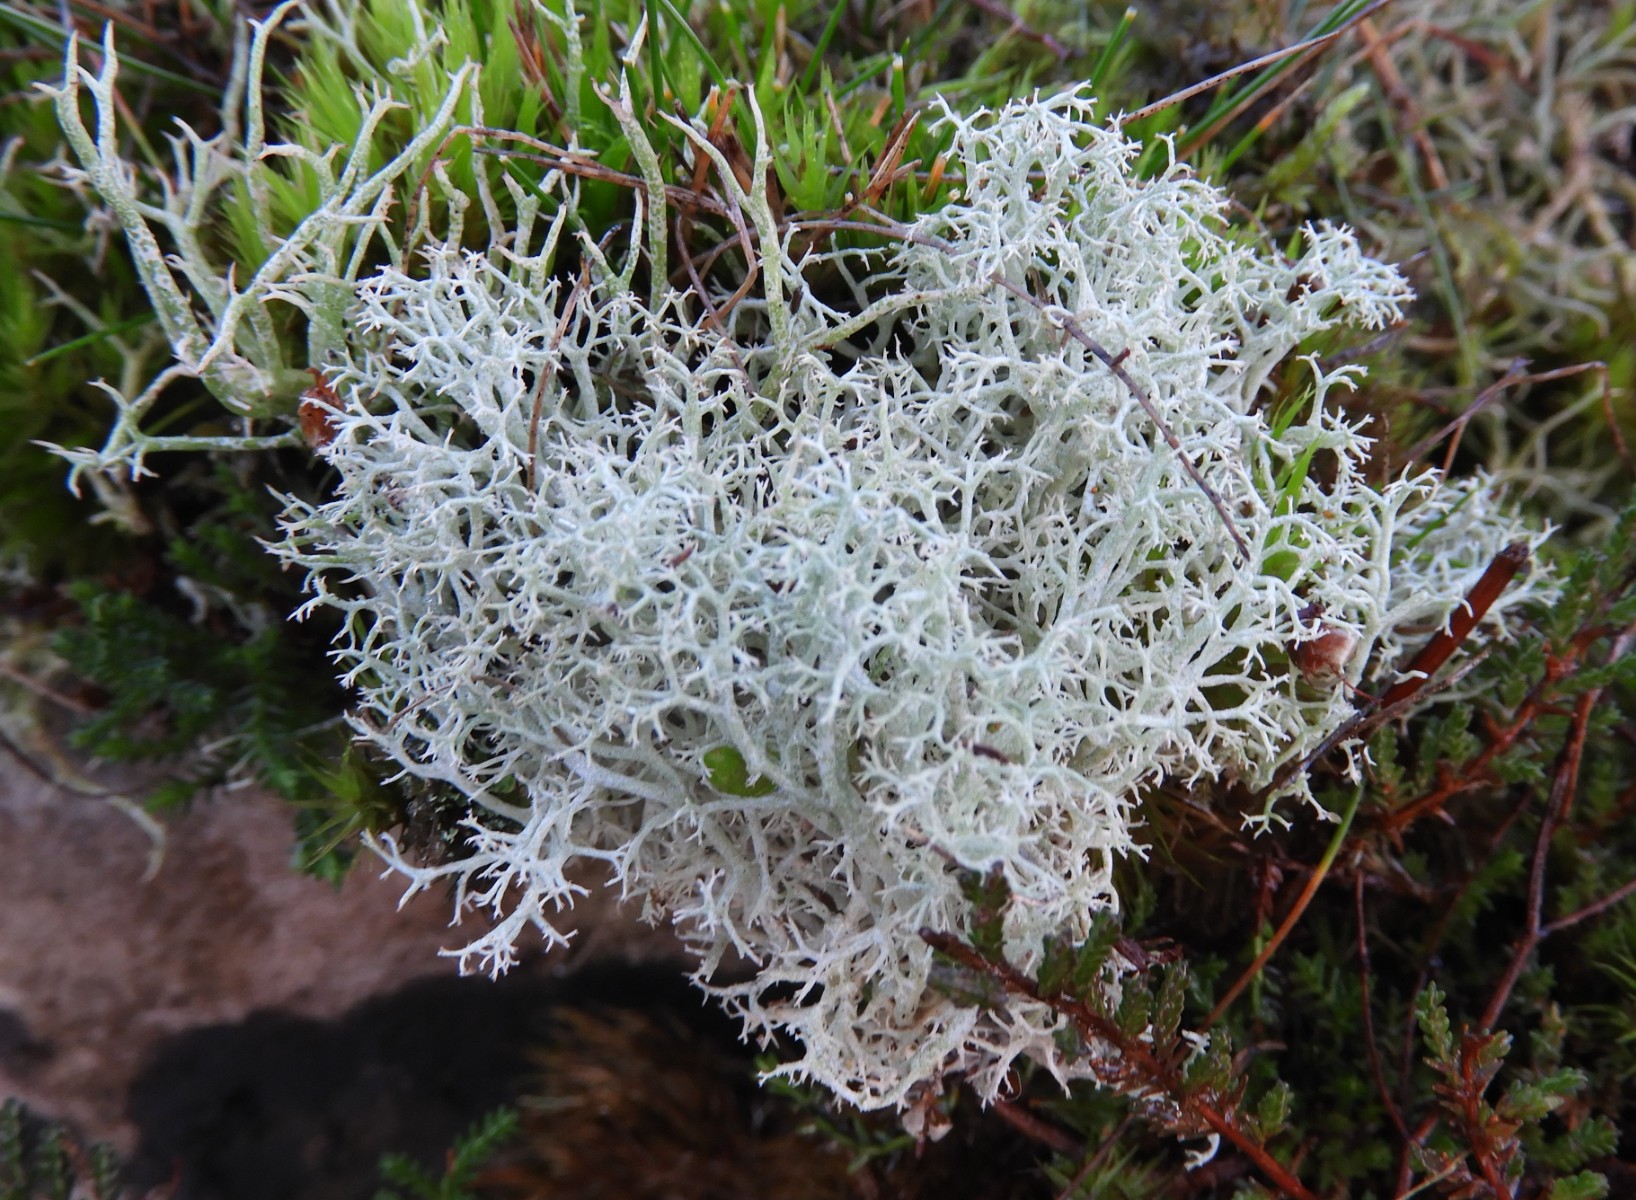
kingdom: Fungi
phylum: Ascomycota
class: Lecanoromycetes
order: Lecanorales
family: Cladoniaceae
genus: Cladonia
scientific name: Cladonia portentosa
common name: hede-rensdyrlav
